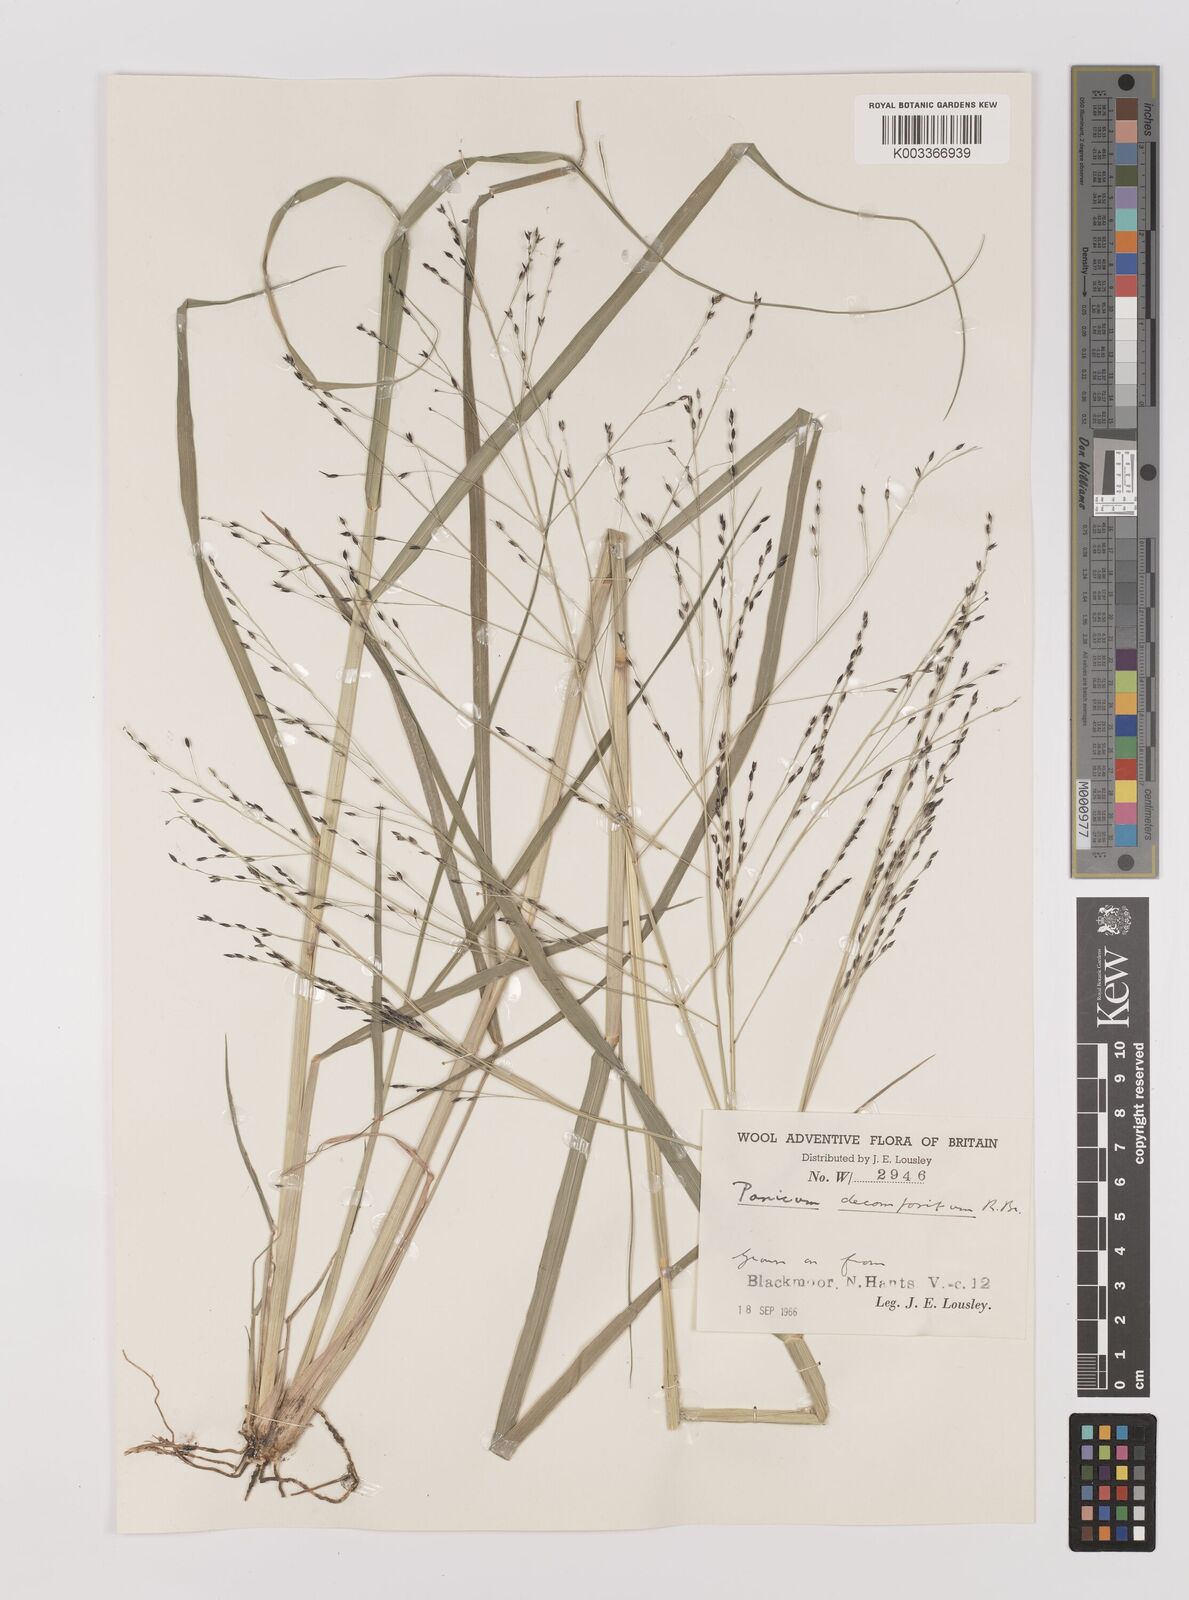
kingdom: Plantae
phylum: Tracheophyta
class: Liliopsida
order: Poales
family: Poaceae
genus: Panicum
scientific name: Panicum decompositum
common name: Australian millet
